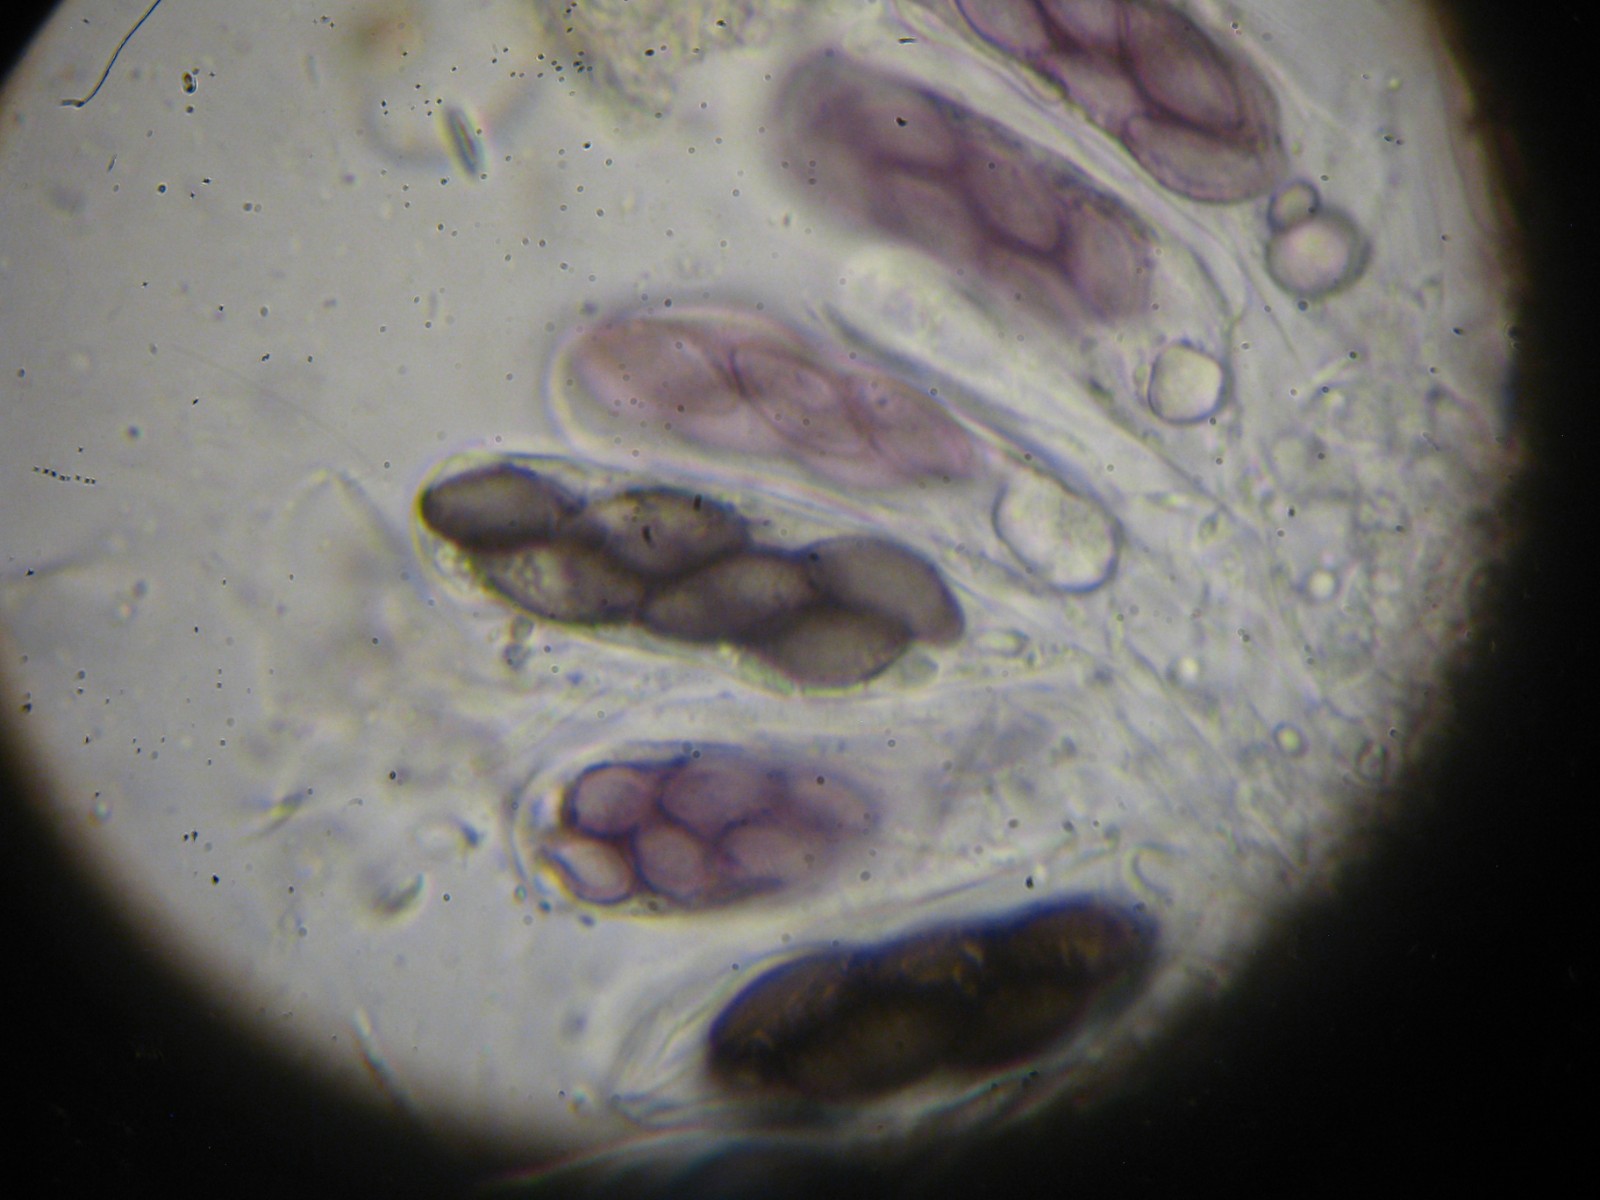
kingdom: Fungi
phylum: Ascomycota
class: Pezizomycetes
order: Pezizales
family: Ascobolaceae
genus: Saccobolus
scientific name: Saccobolus obscurus
